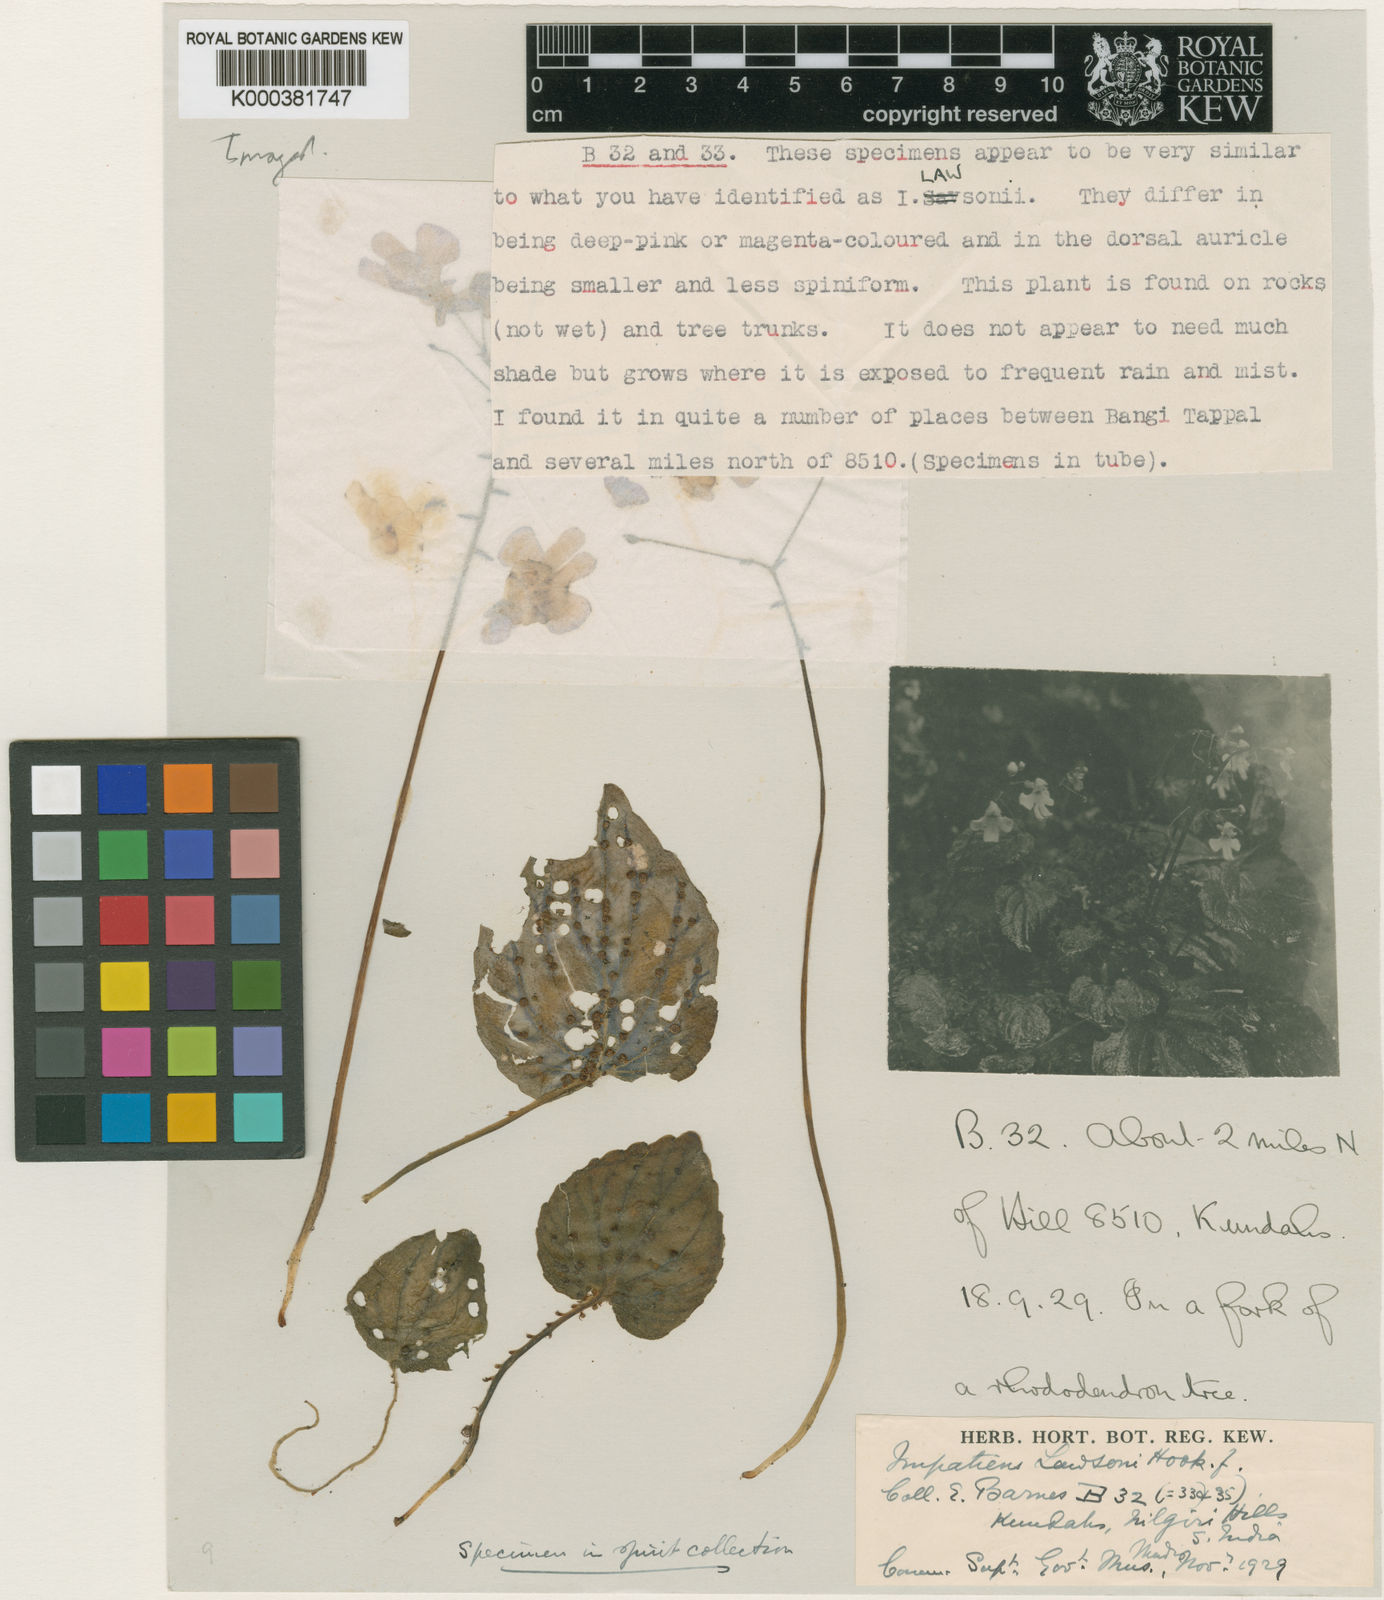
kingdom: Plantae
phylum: Tracheophyta
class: Magnoliopsida
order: Ericales
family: Balsaminaceae
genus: Impatiens
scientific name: Impatiens lawsonii
